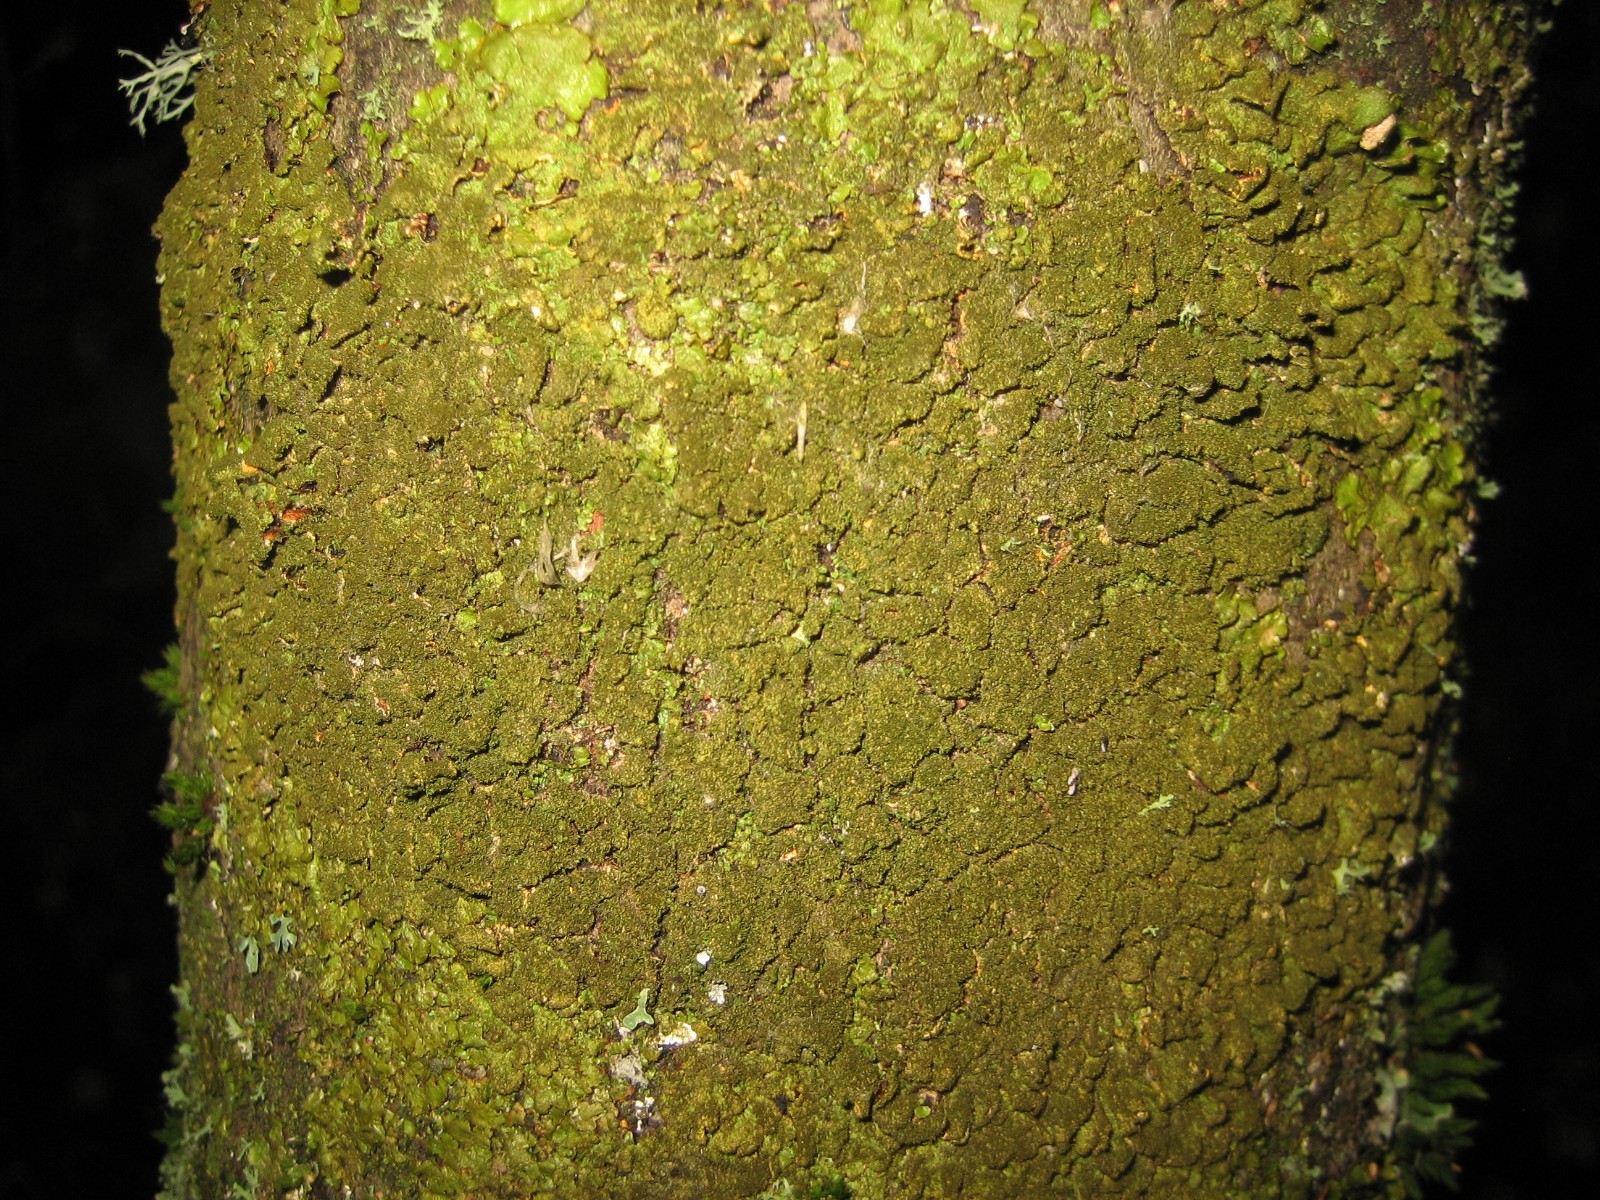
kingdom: Fungi
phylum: Ascomycota
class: Lecanoromycetes
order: Lecanorales
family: Parmeliaceae
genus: Melanelixia
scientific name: Melanelixia glabratula
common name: glinsende skållav
